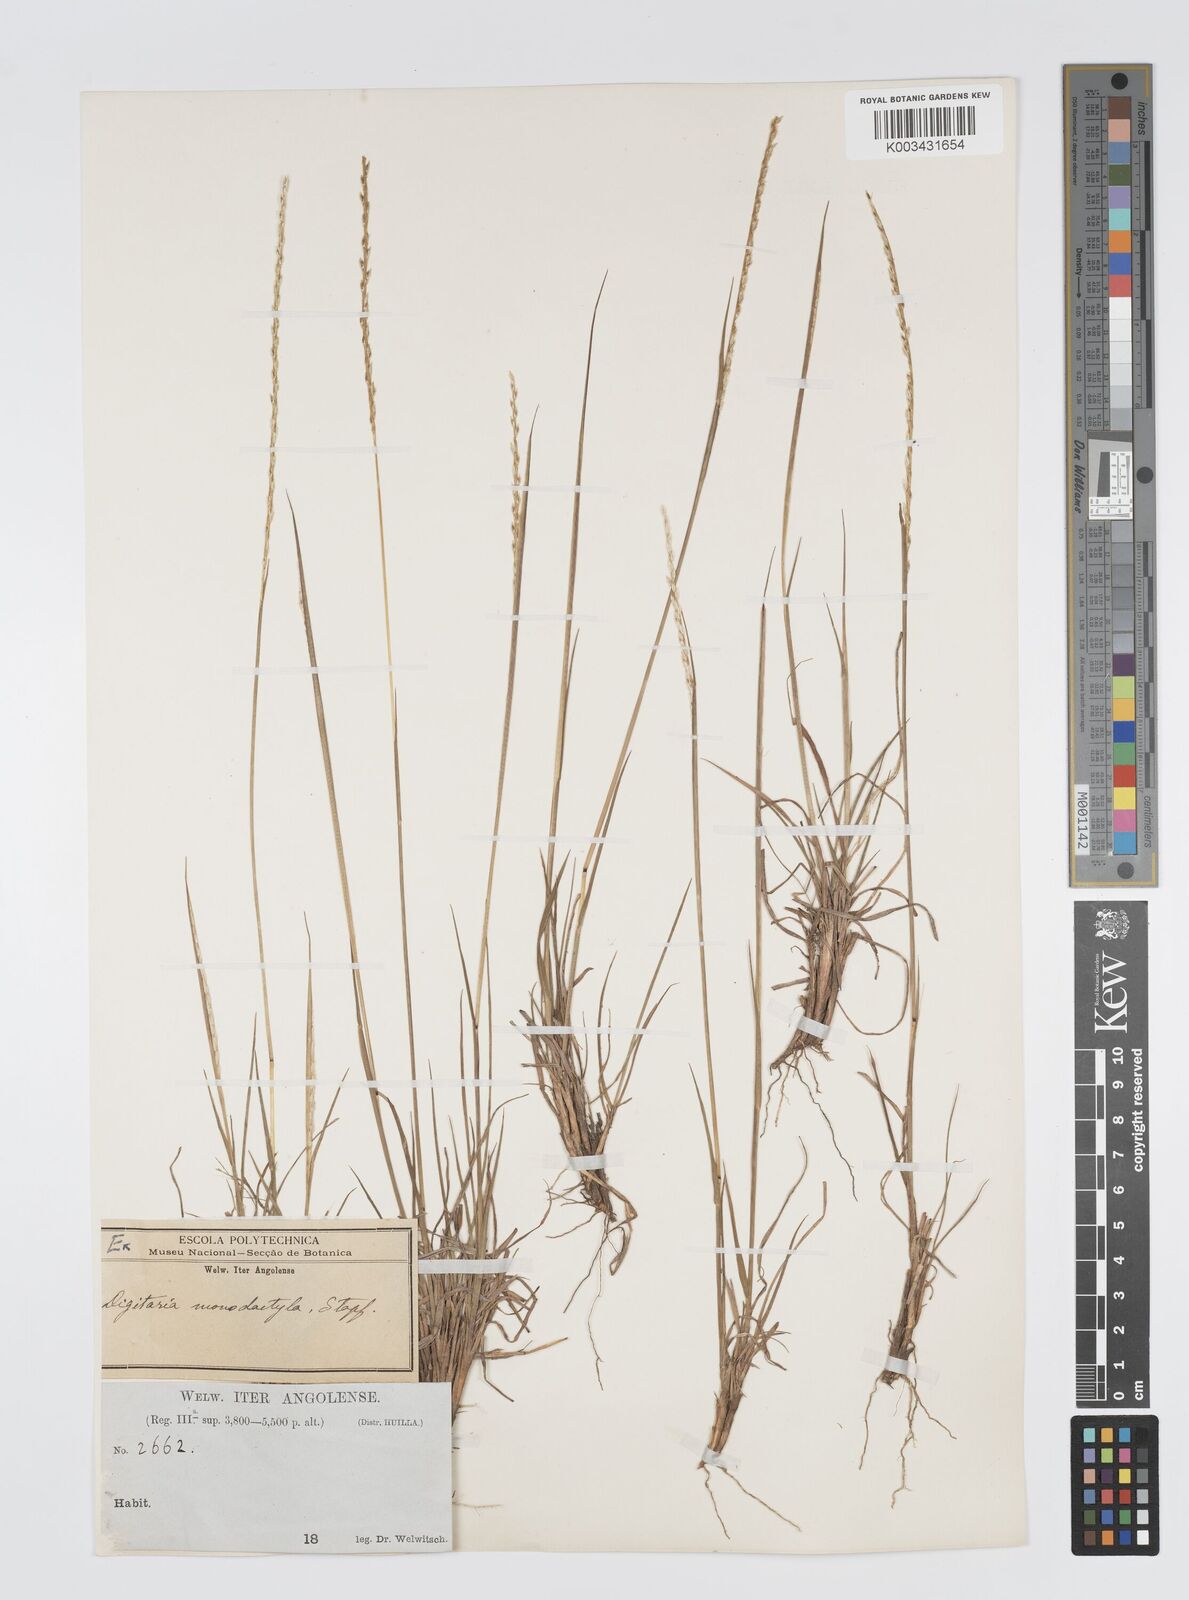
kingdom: Plantae
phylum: Tracheophyta
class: Liliopsida
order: Poales
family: Poaceae
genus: Digitaria
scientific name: Digitaria monodactyla
